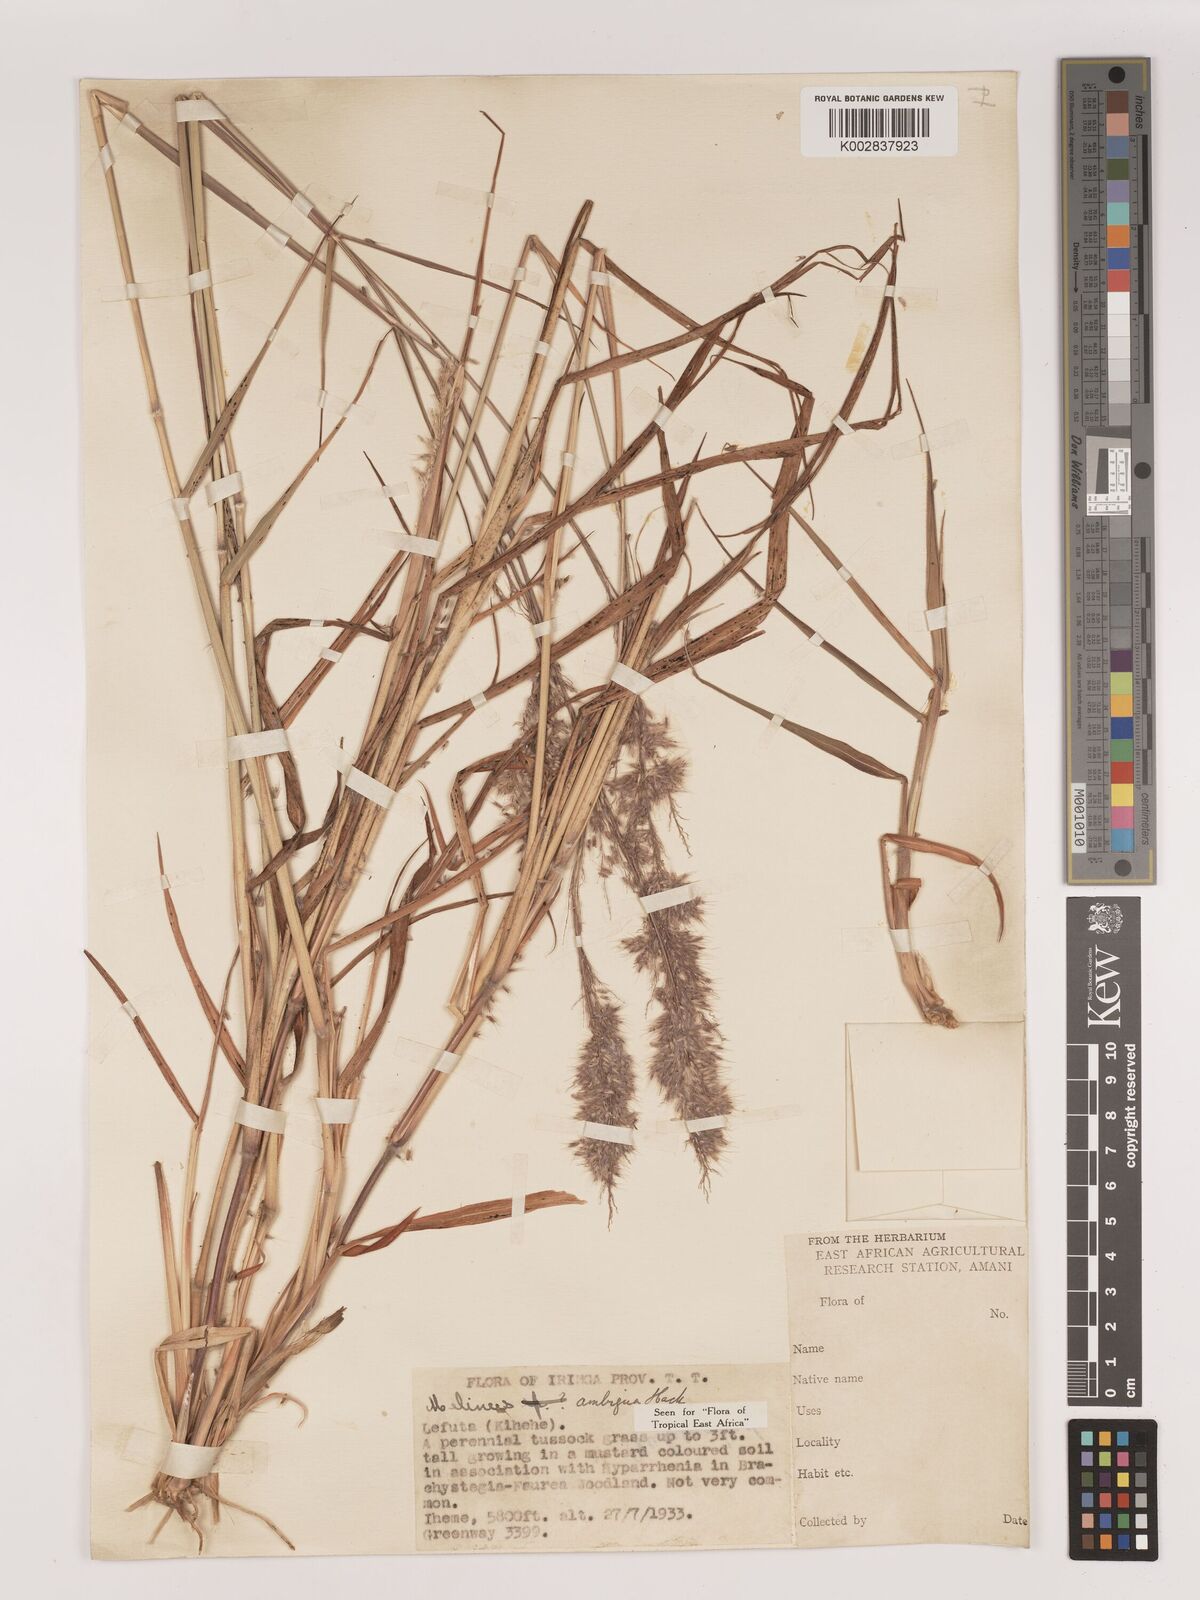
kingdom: Plantae
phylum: Tracheophyta
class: Liliopsida
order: Poales
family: Poaceae
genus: Melinis
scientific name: Melinis ambigua
